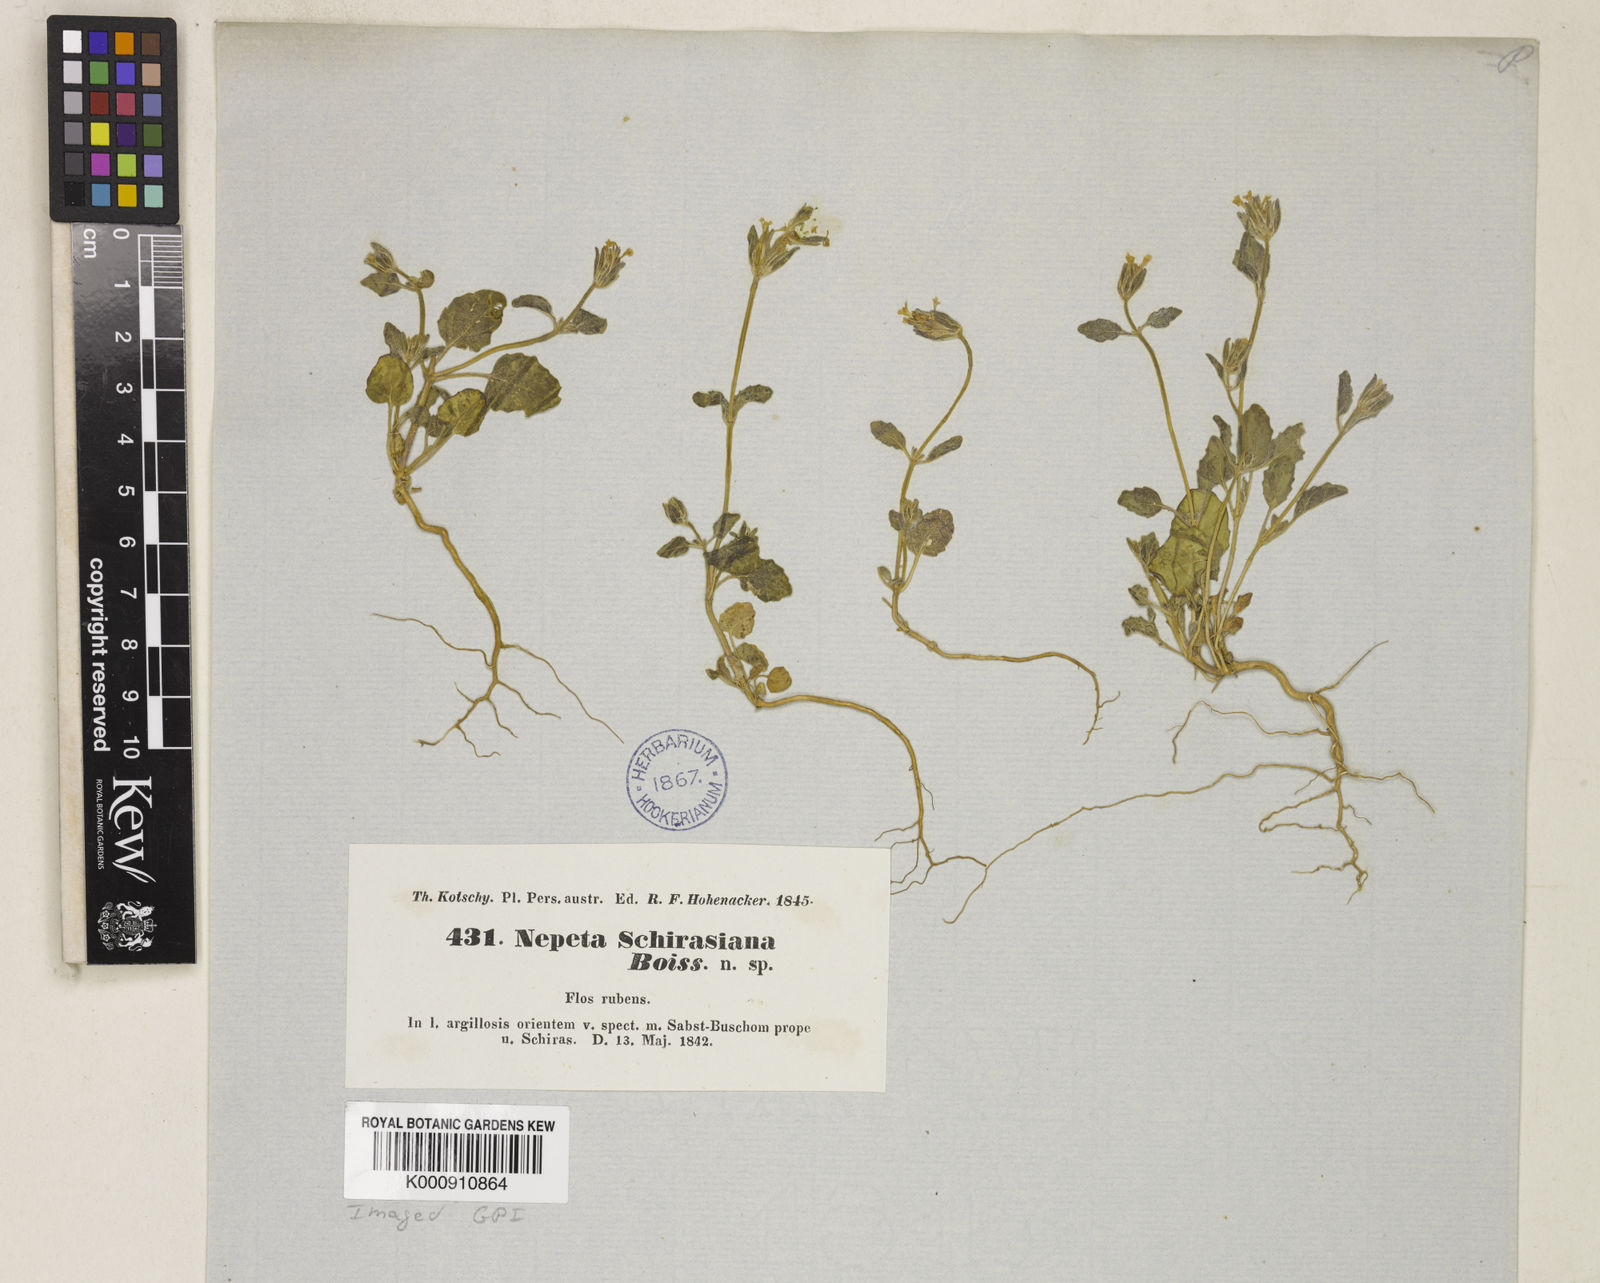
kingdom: Plantae
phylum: Tracheophyta
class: Magnoliopsida
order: Lamiales
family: Lamiaceae
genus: Nepeta
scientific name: Nepeta
